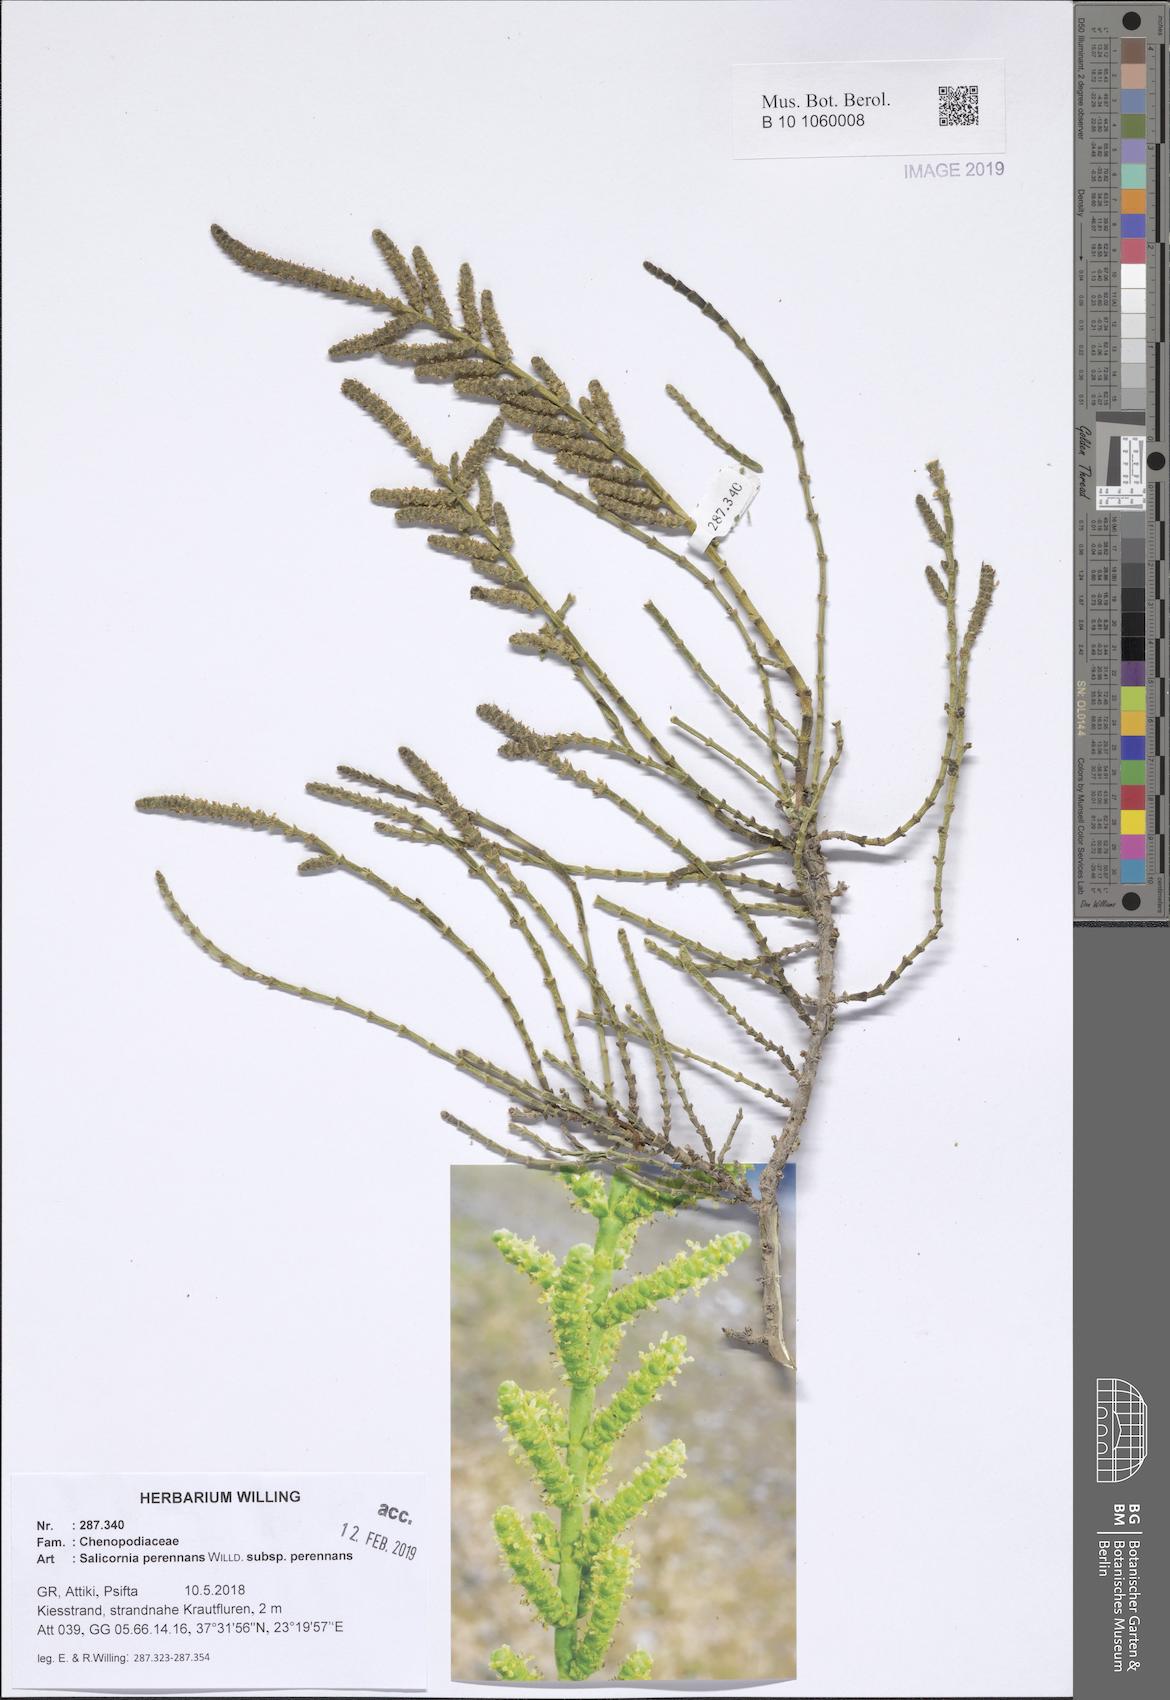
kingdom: Plantae
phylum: Tracheophyta
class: Magnoliopsida
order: Caryophyllales
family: Amaranthaceae
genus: Salicornia
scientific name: Salicornia fruticosa
